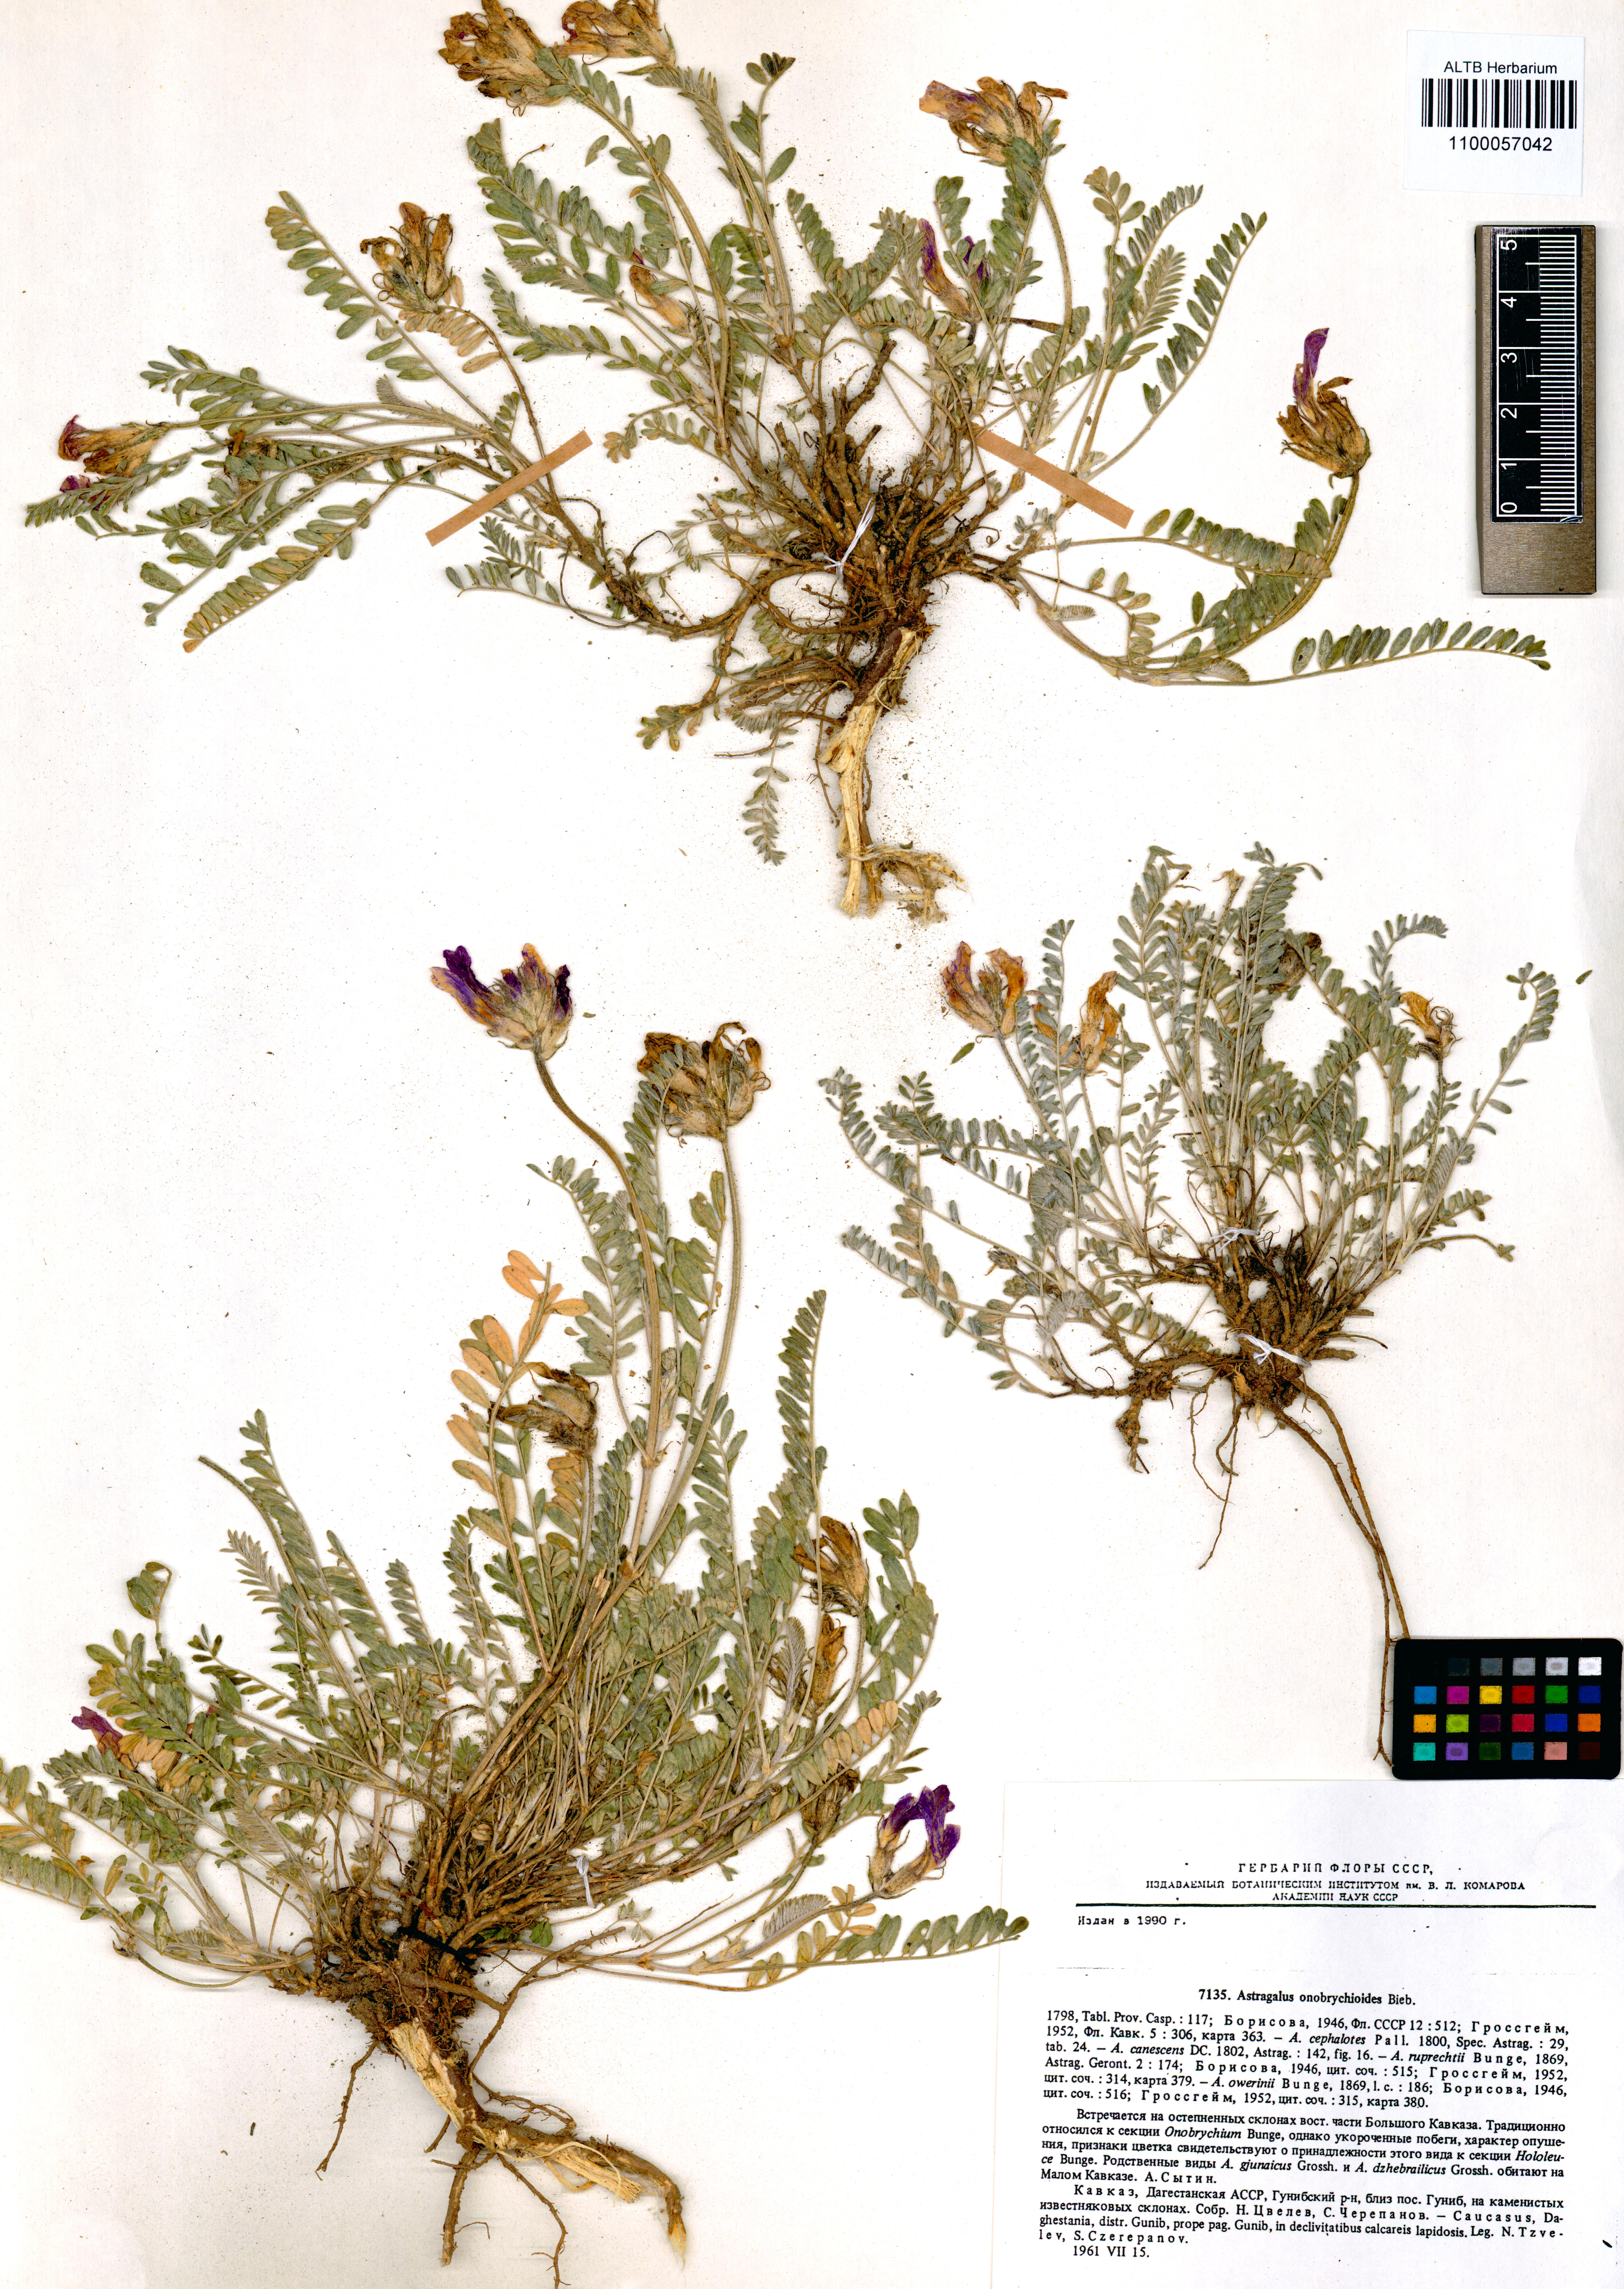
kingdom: Plantae
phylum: Tracheophyta
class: Magnoliopsida
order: Fabales
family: Fabaceae
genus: Astragalus
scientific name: Astragalus onobrychioides
